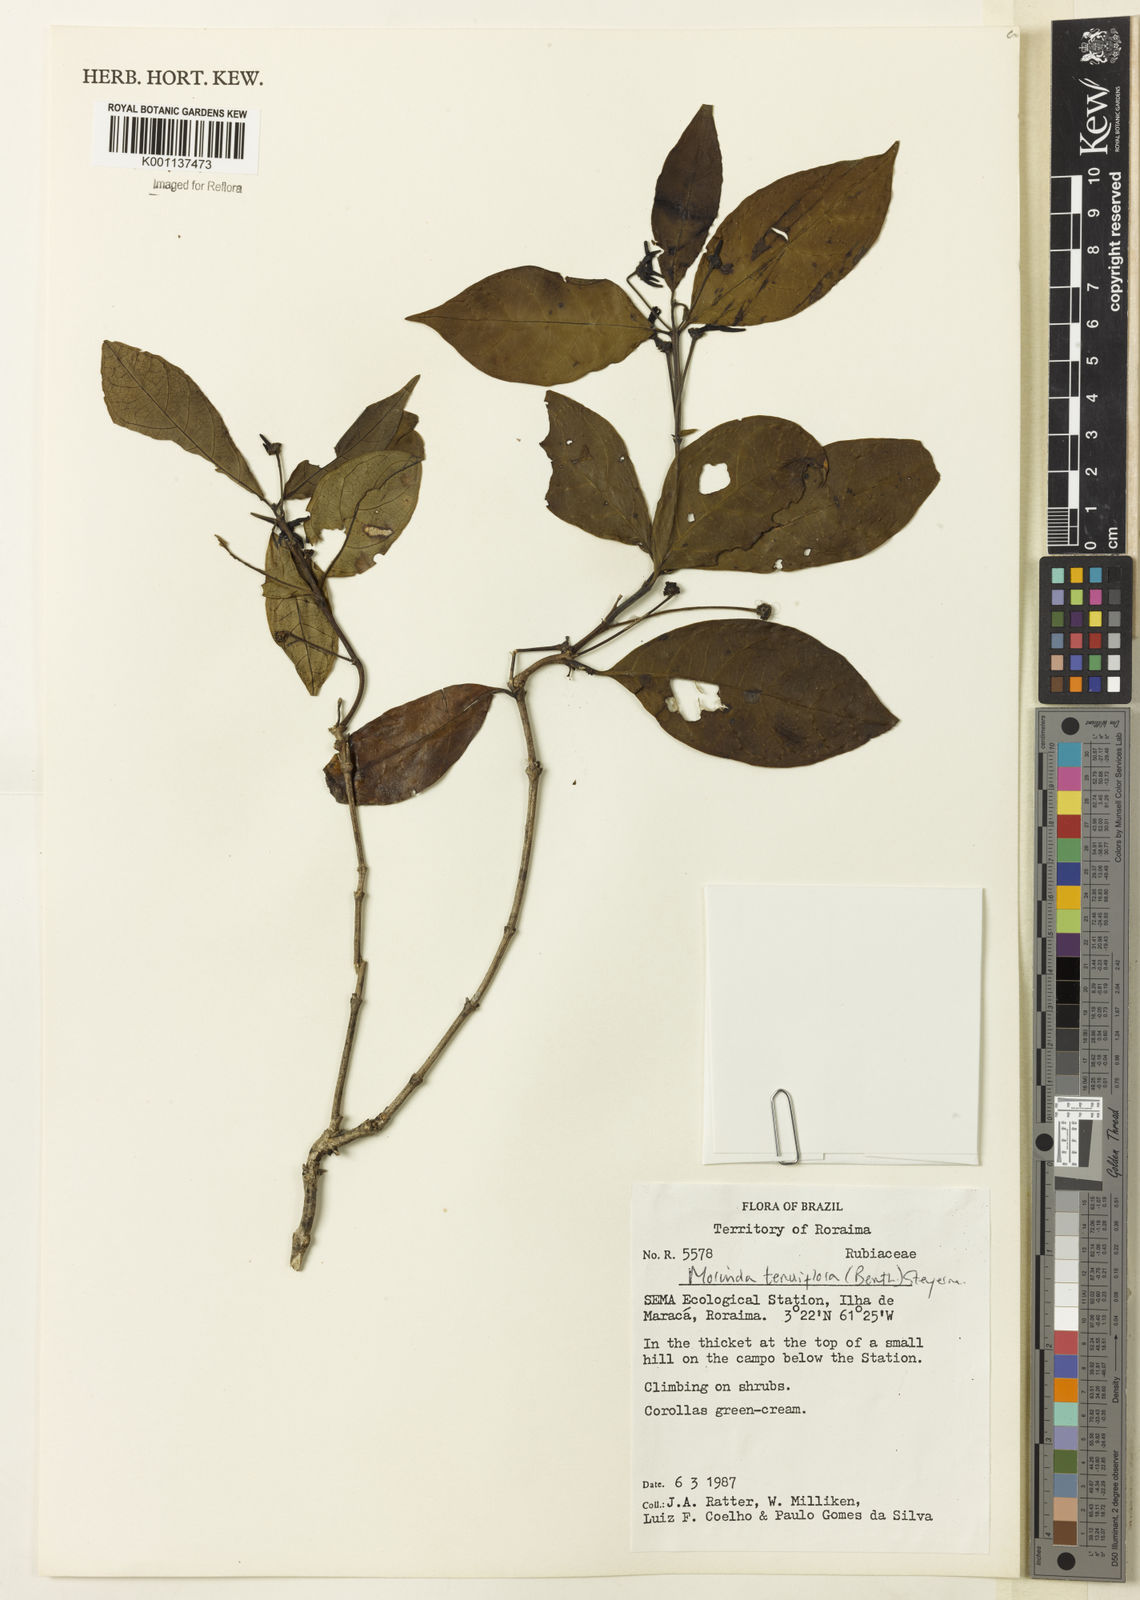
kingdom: Plantae
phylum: Tracheophyta
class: Magnoliopsida
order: Gentianales
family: Rubiaceae
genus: Appunia
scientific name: Appunia tenuiflora
